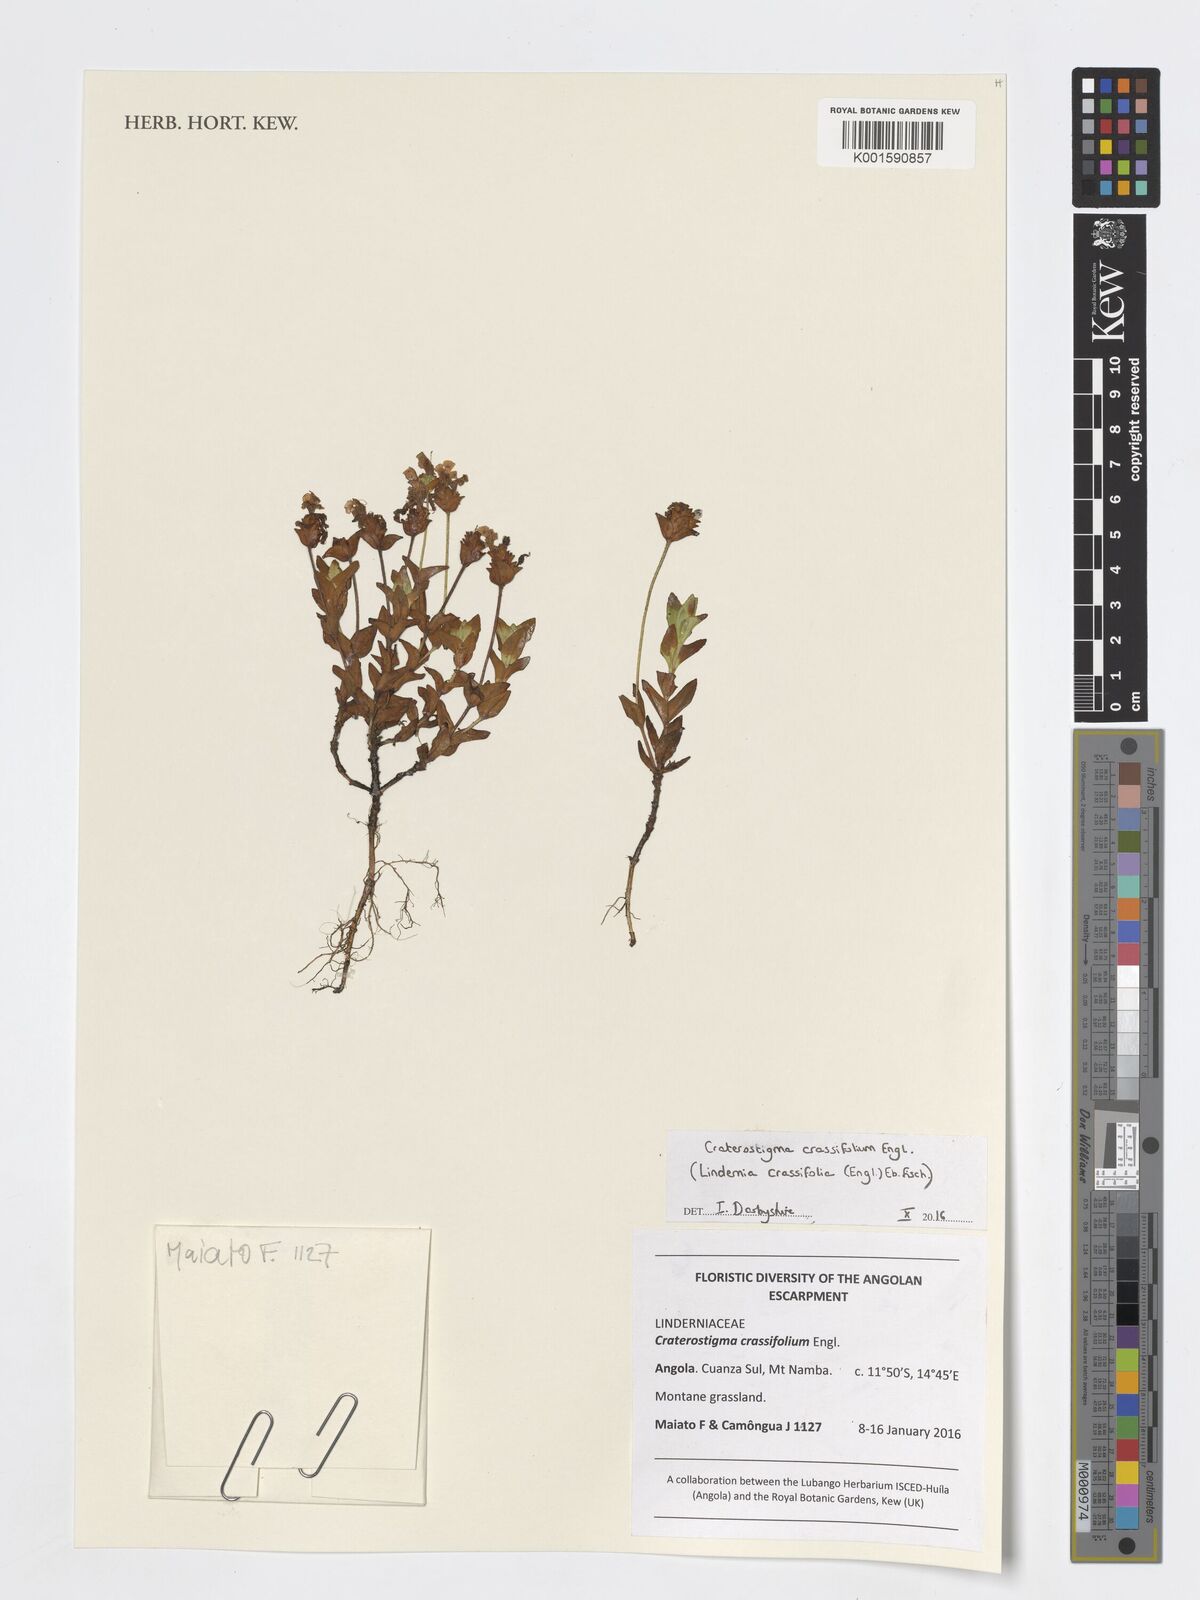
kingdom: Plantae
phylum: Tracheophyta
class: Magnoliopsida
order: Lamiales
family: Linderniaceae
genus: Lindernia
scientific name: Lindernia crassifolia
